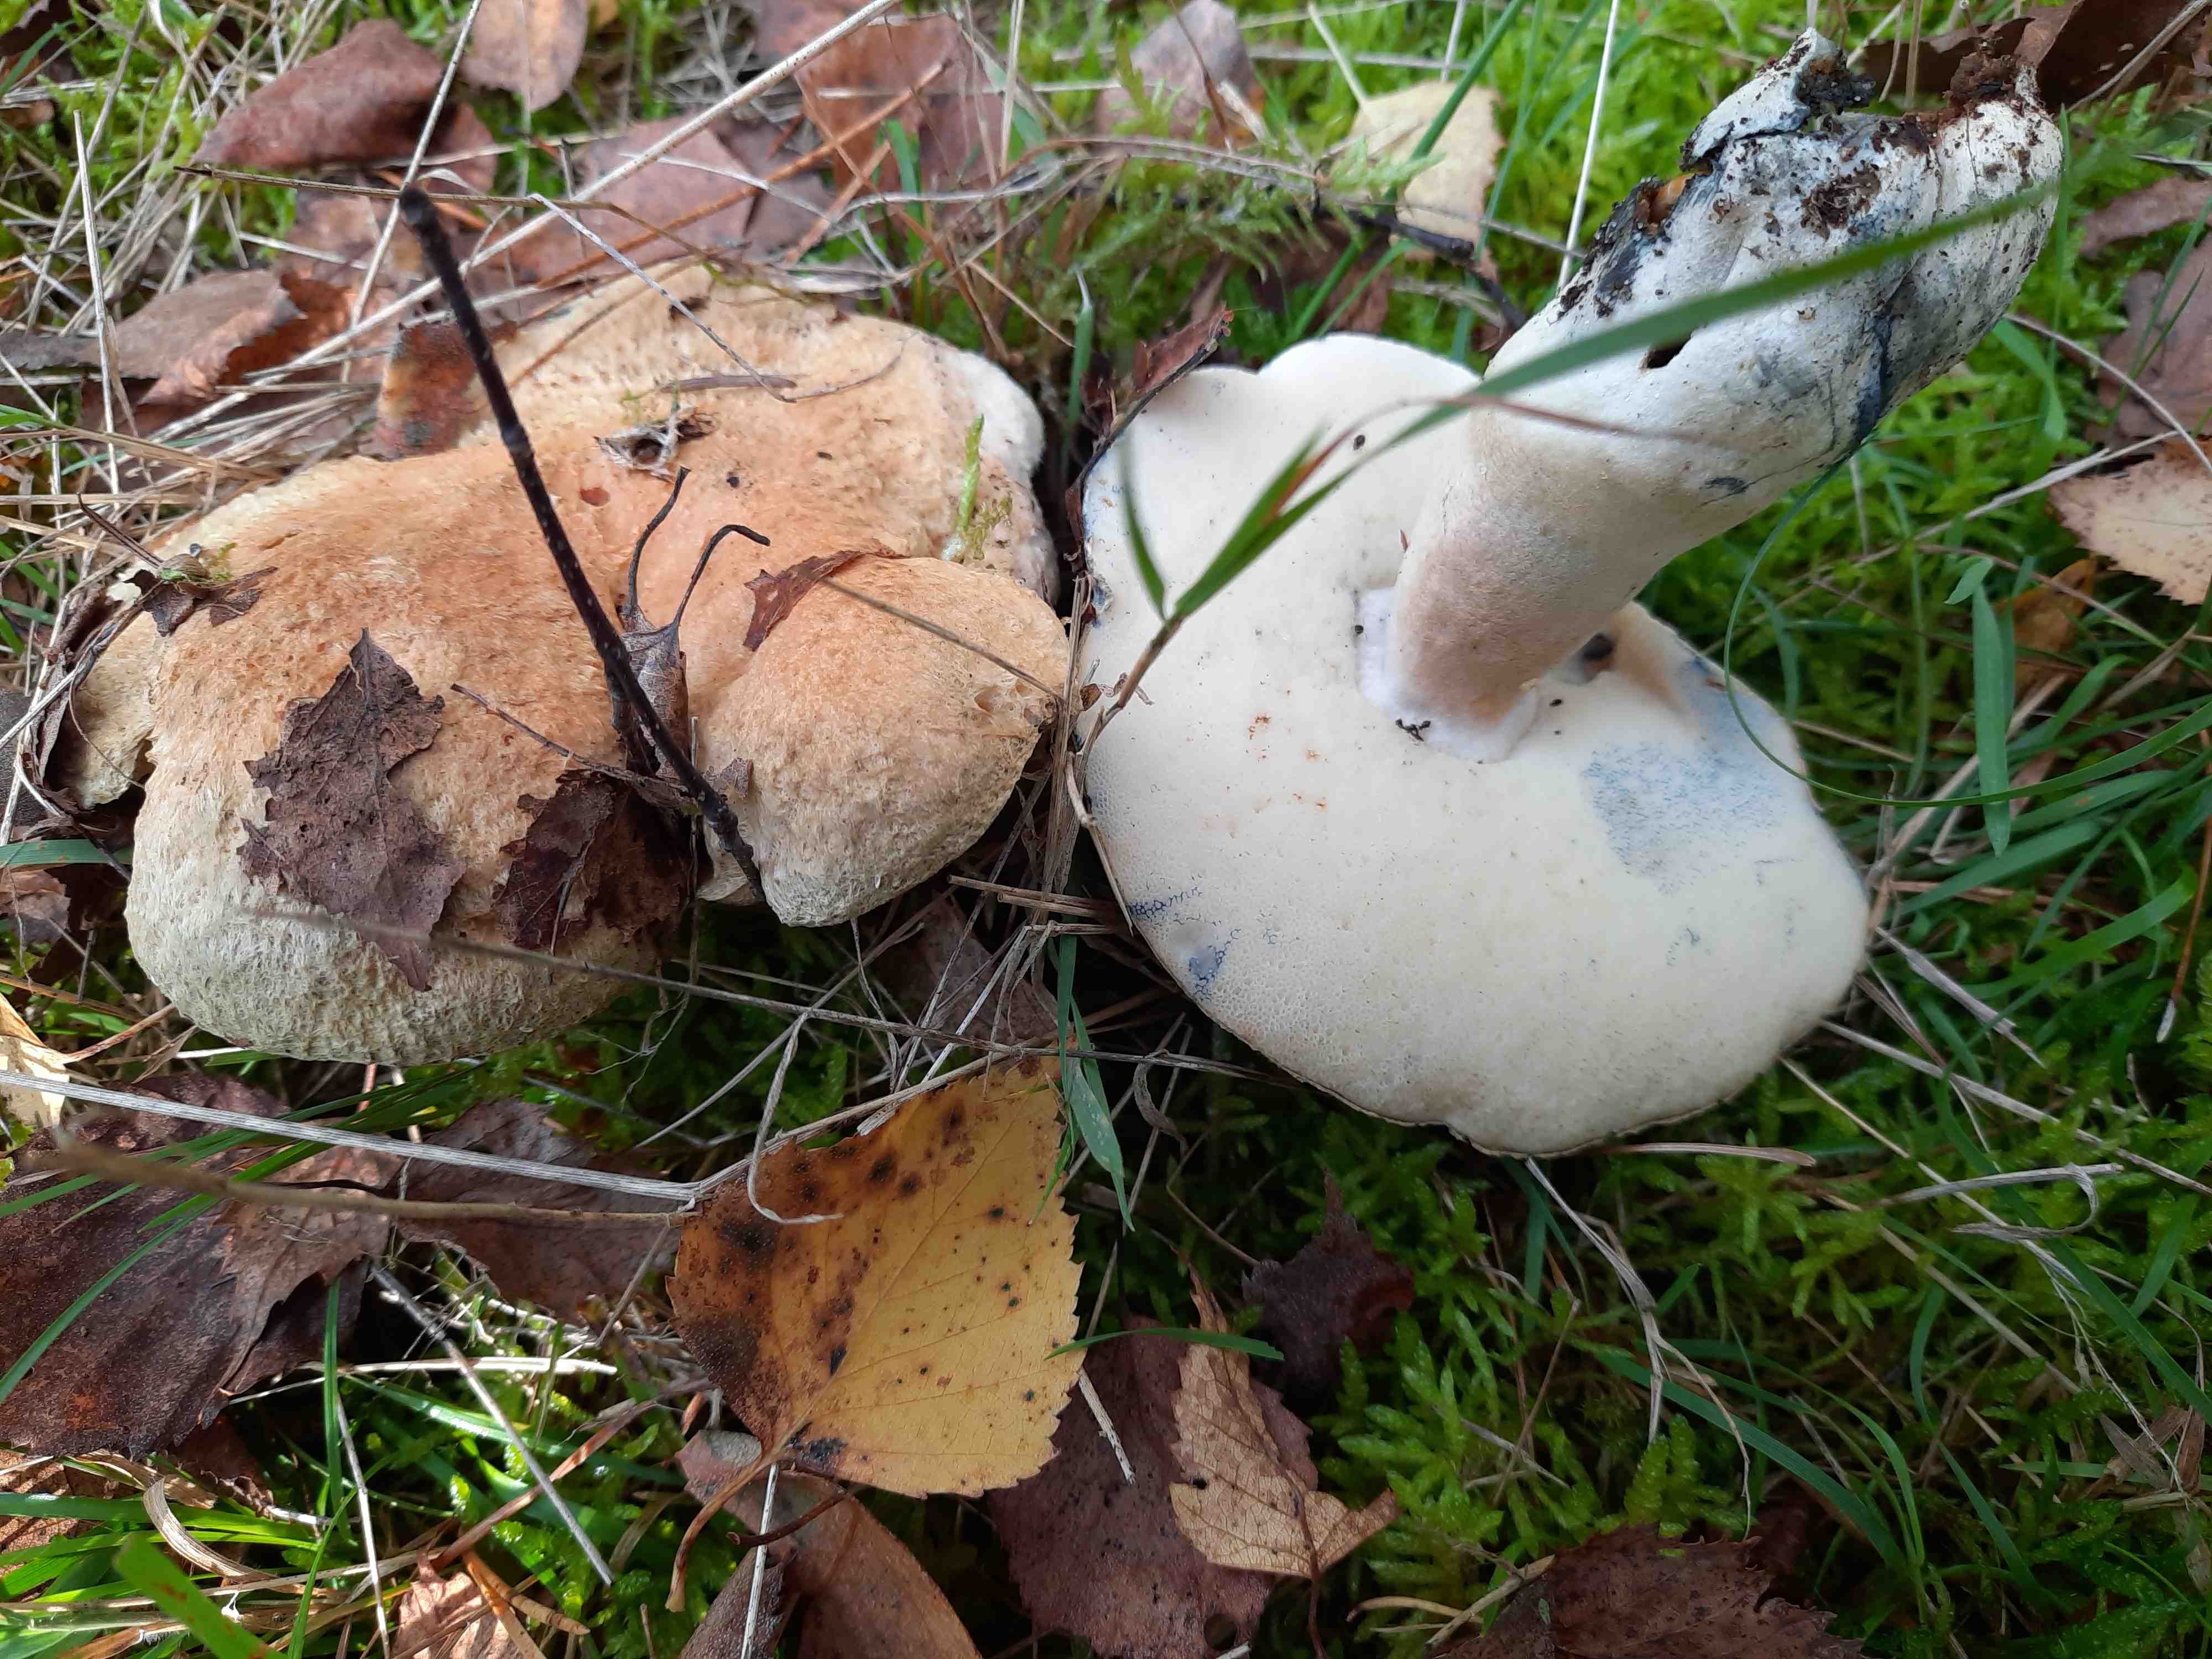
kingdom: Fungi
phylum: Basidiomycota
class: Agaricomycetes
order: Boletales
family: Gyroporaceae
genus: Gyroporus
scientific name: Gyroporus cyanescens
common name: blånende kammerrørhat
